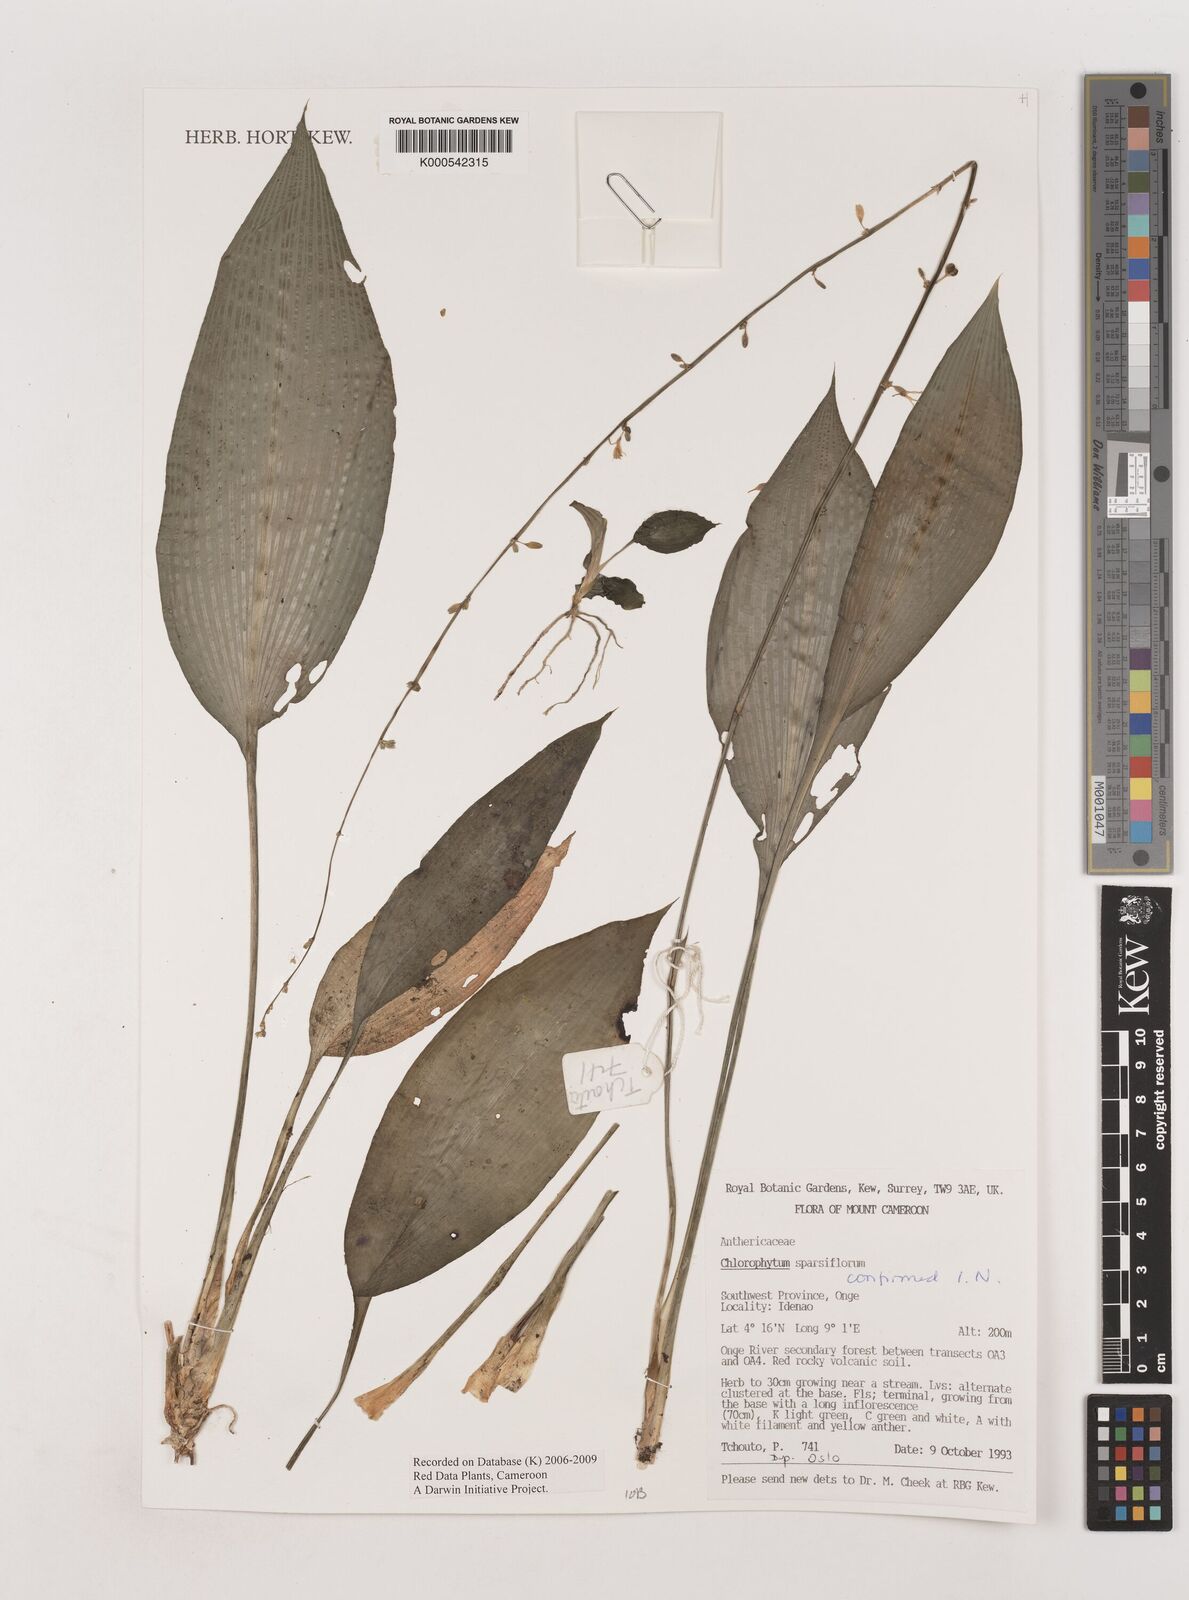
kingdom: Plantae
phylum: Tracheophyta
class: Liliopsida
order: Asparagales
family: Asparagaceae
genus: Chlorophytum
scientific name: Chlorophytum sparsiflorum
